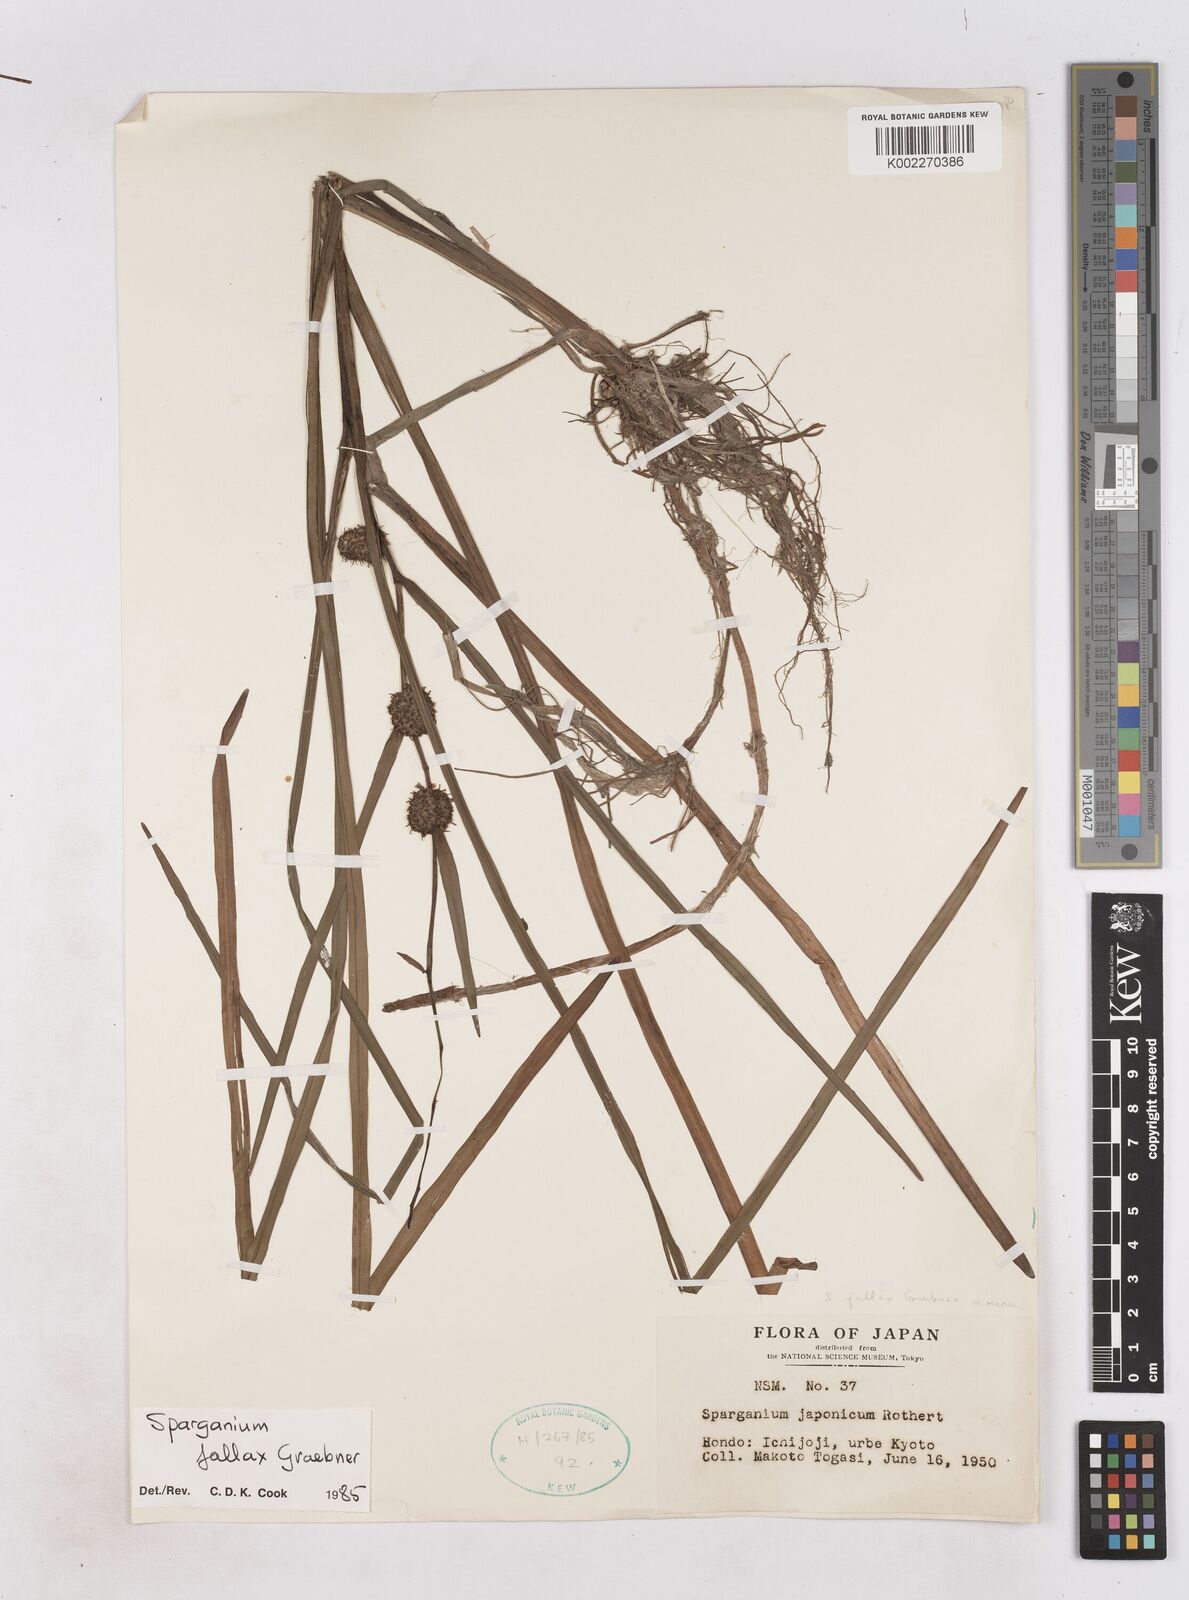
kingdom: Plantae
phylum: Tracheophyta
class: Liliopsida
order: Poales
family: Typhaceae
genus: Sparganium
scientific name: Sparganium fallax
